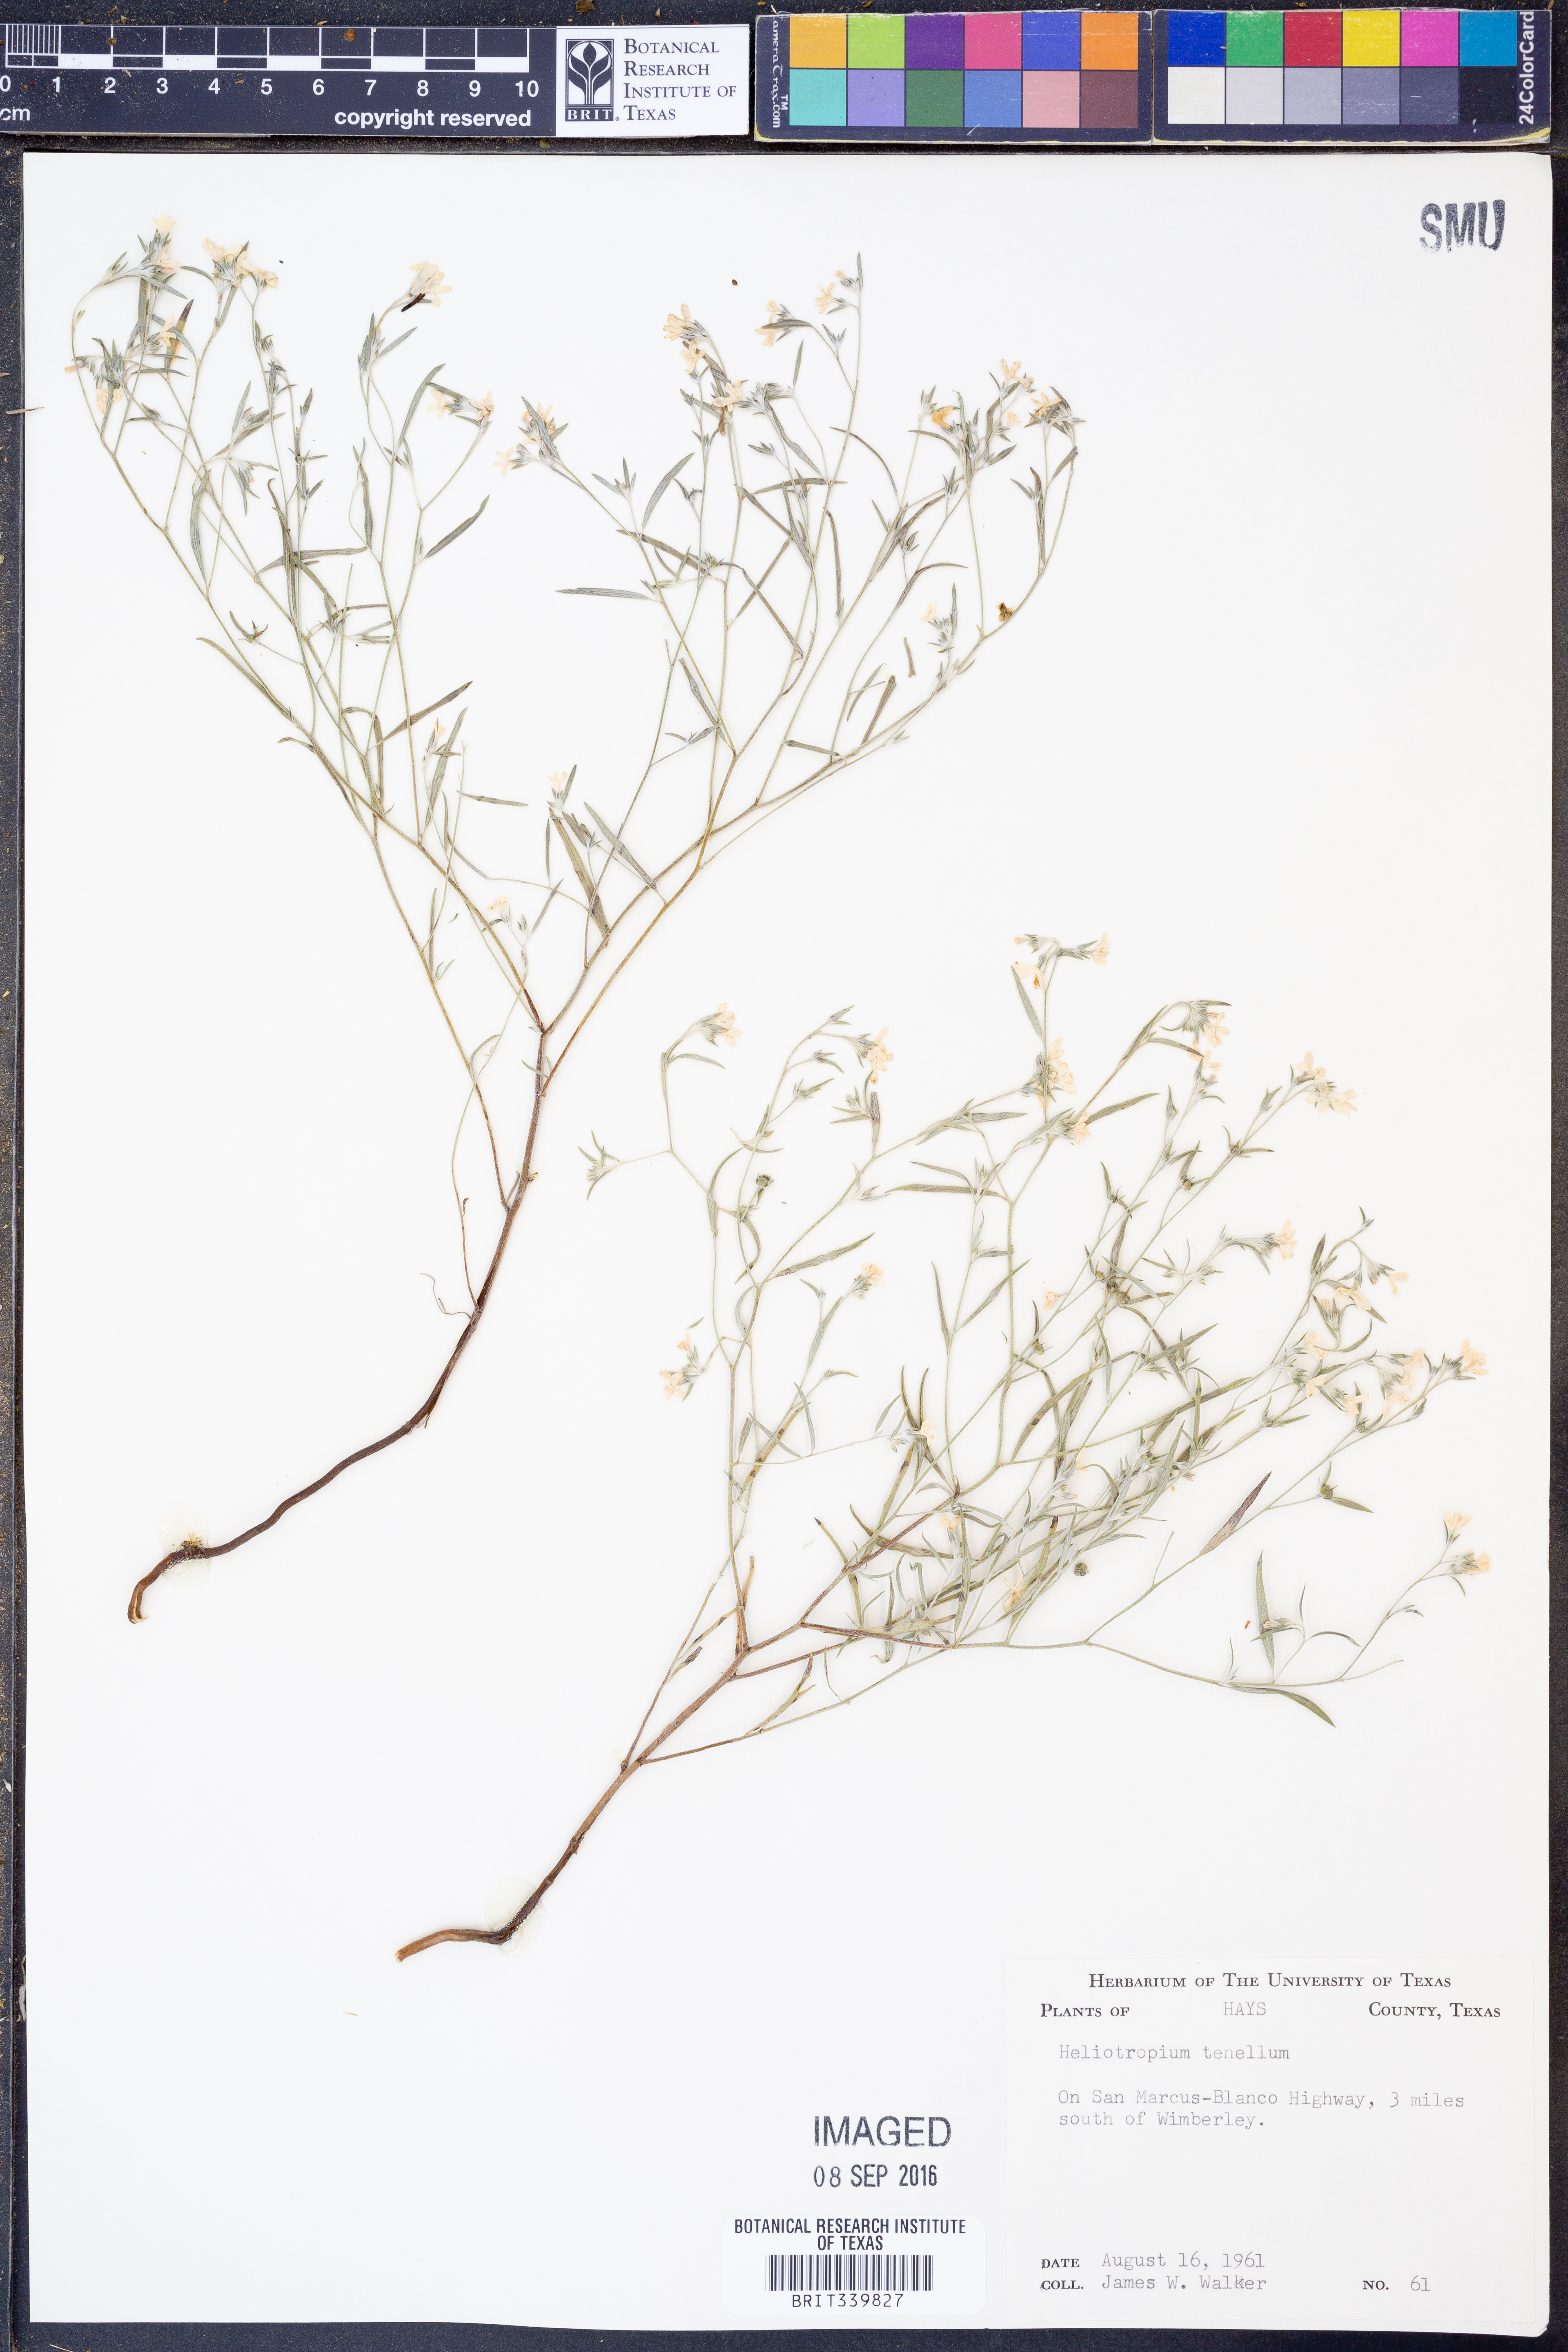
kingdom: Plantae
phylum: Tracheophyta
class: Magnoliopsida
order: Boraginales
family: Heliotropiaceae
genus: Euploca
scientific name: Euploca tenella
